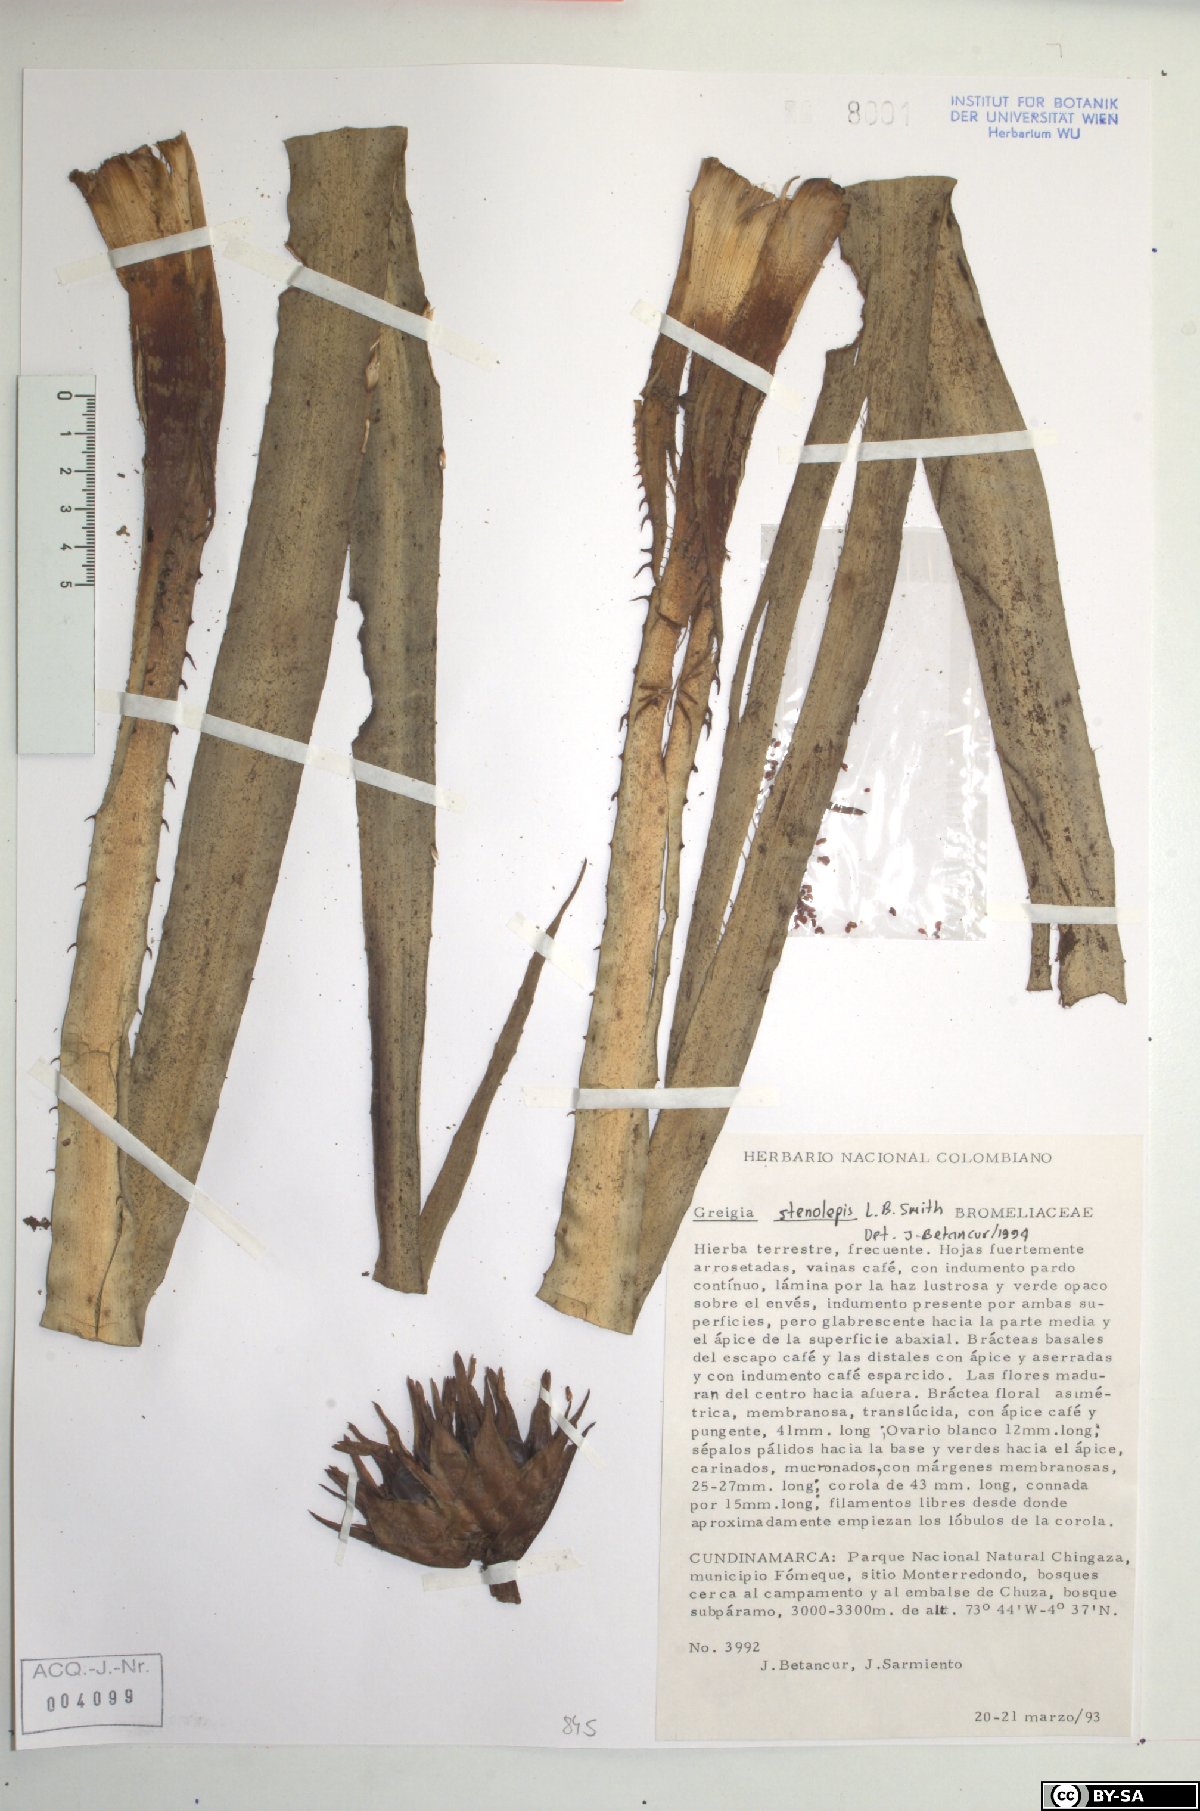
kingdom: Plantae
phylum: Tracheophyta
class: Liliopsida
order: Poales
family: Bromeliaceae
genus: Greigia
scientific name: Greigia stenolepis
